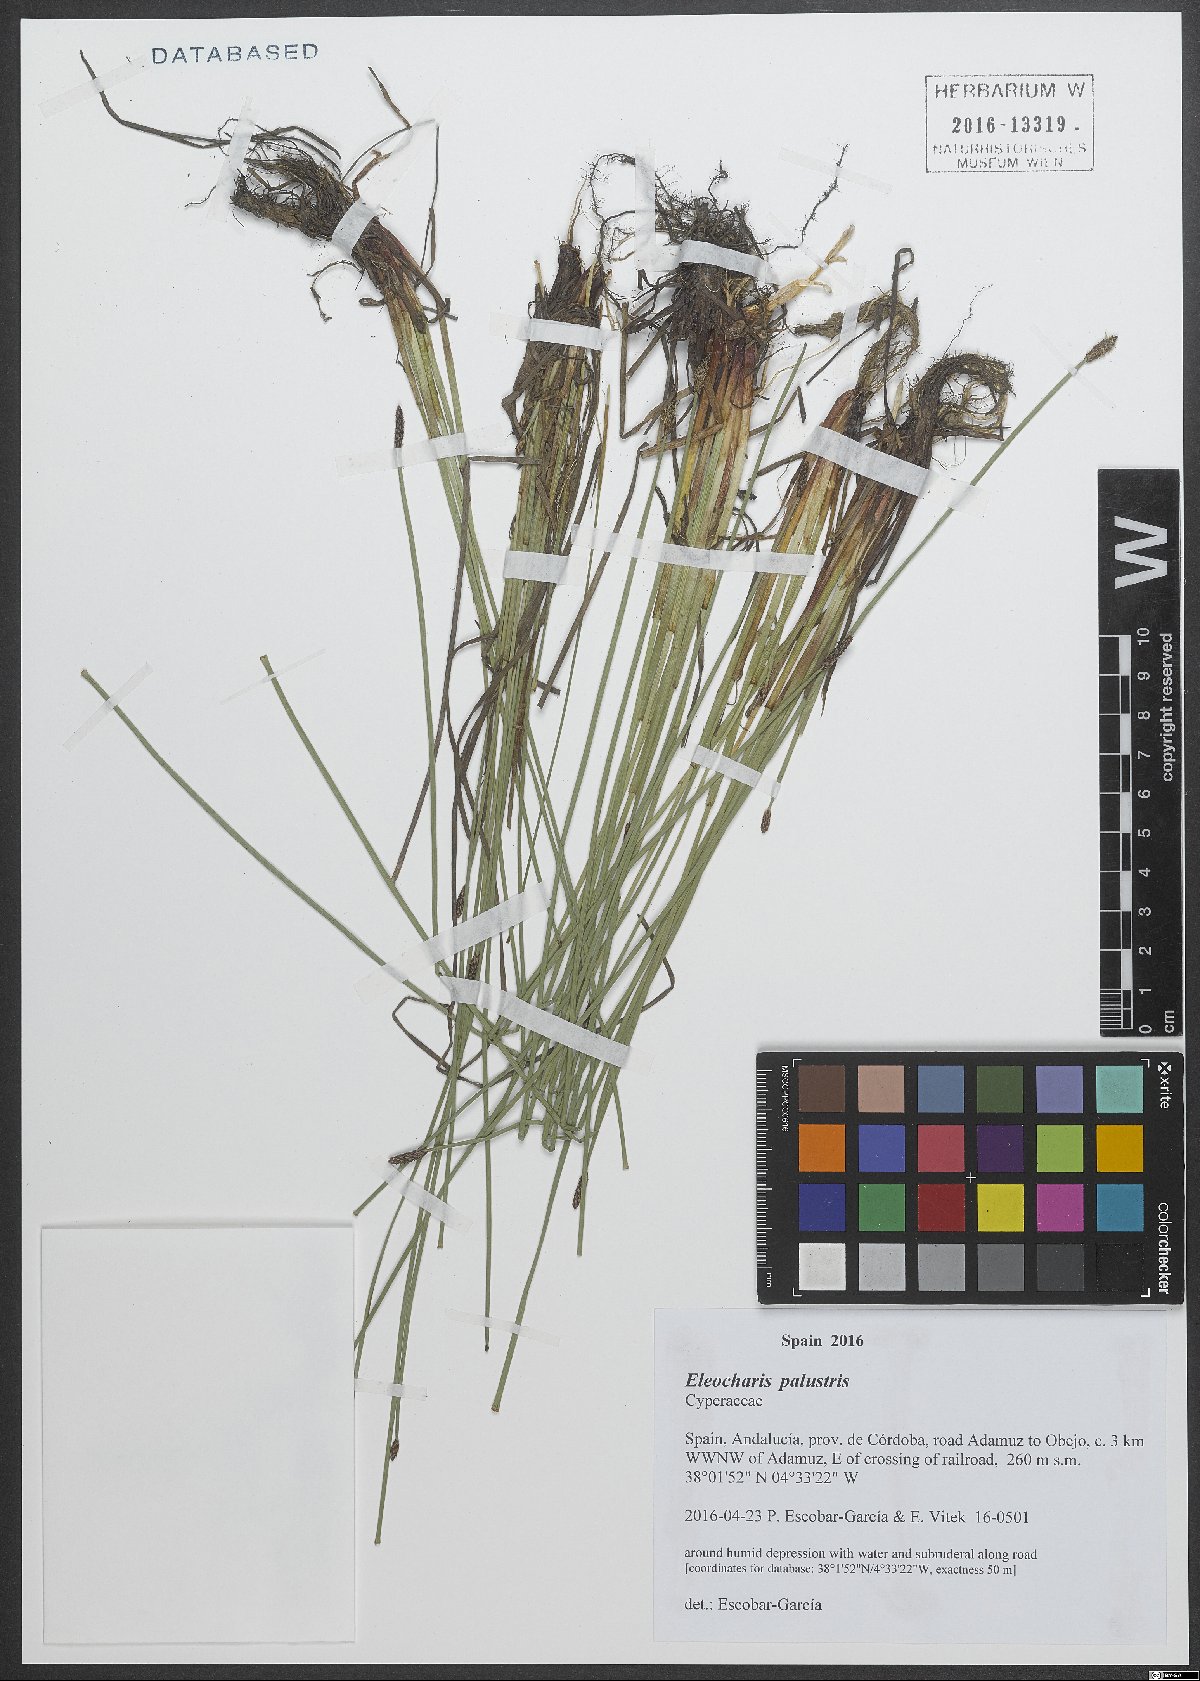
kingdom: Plantae
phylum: Tracheophyta
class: Liliopsida
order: Poales
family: Cyperaceae
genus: Eleocharis
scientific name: Eleocharis palustris
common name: Common spike-rush
